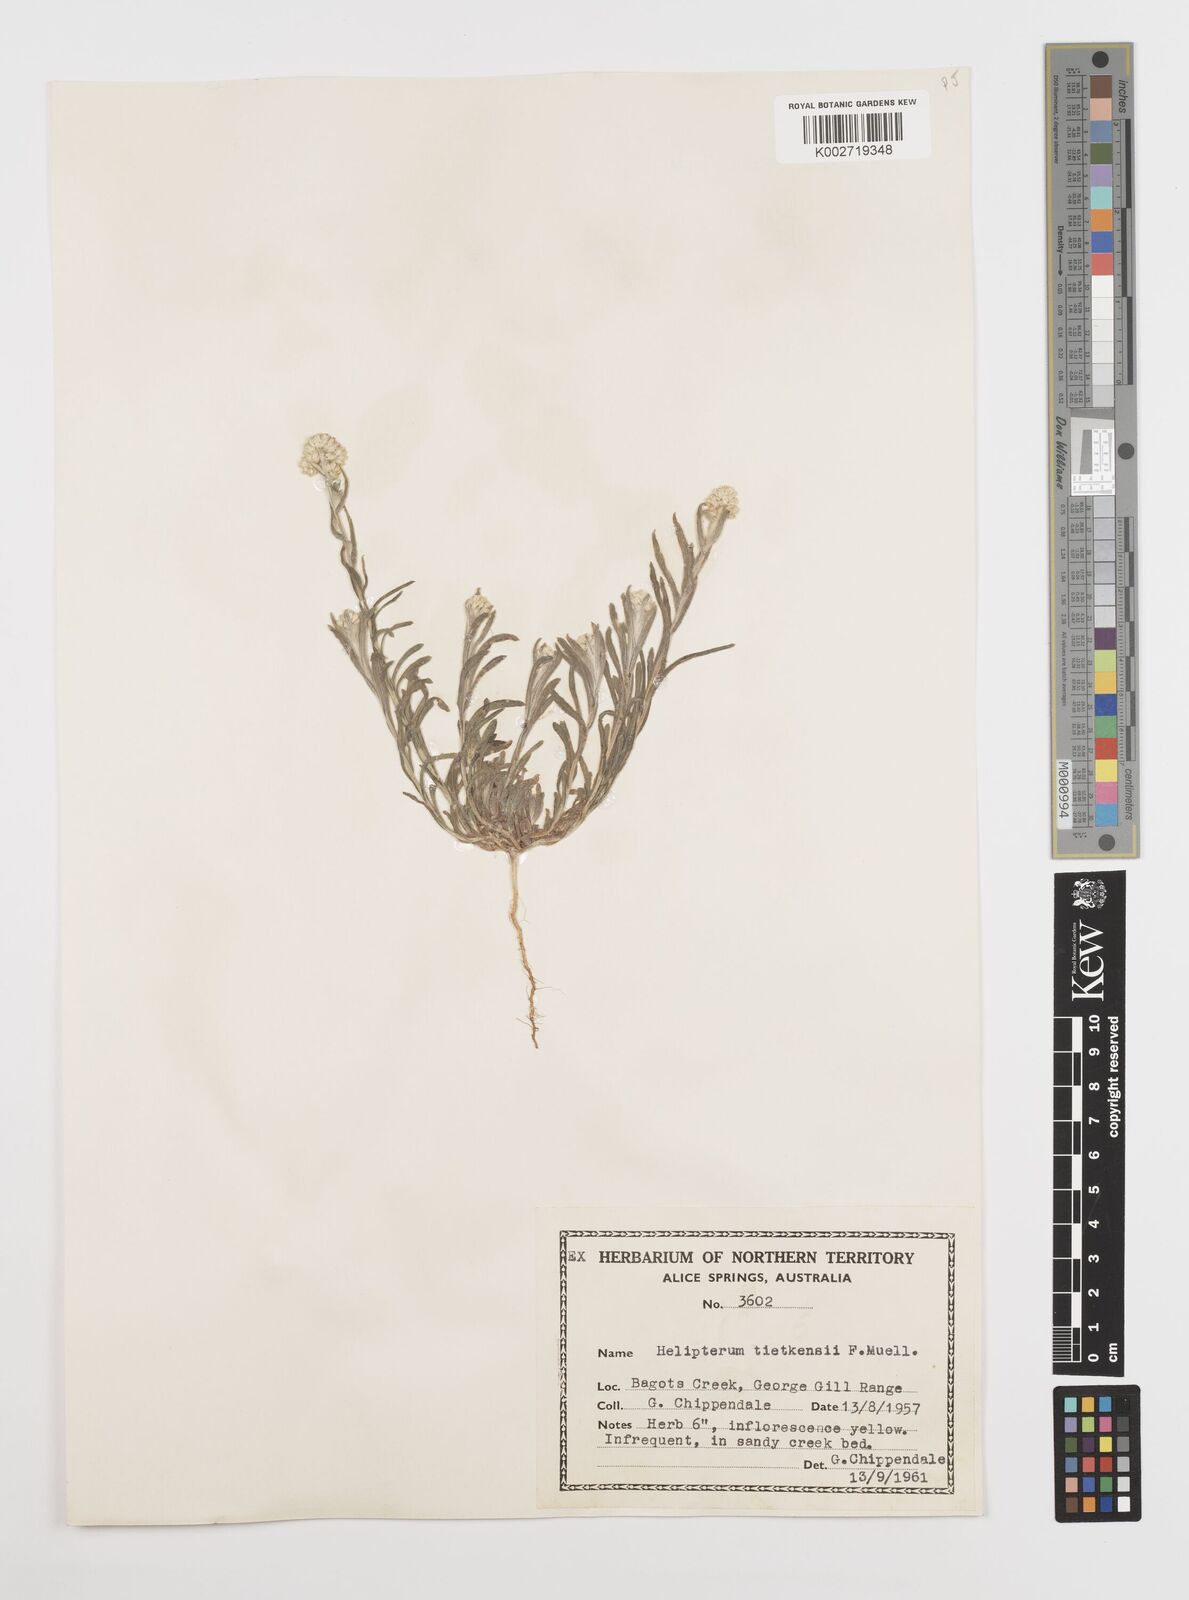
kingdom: Plantae
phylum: Tracheophyta
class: Magnoliopsida
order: Asterales
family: Asteraceae
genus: Rhodanthe
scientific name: Rhodanthe tietkensii
